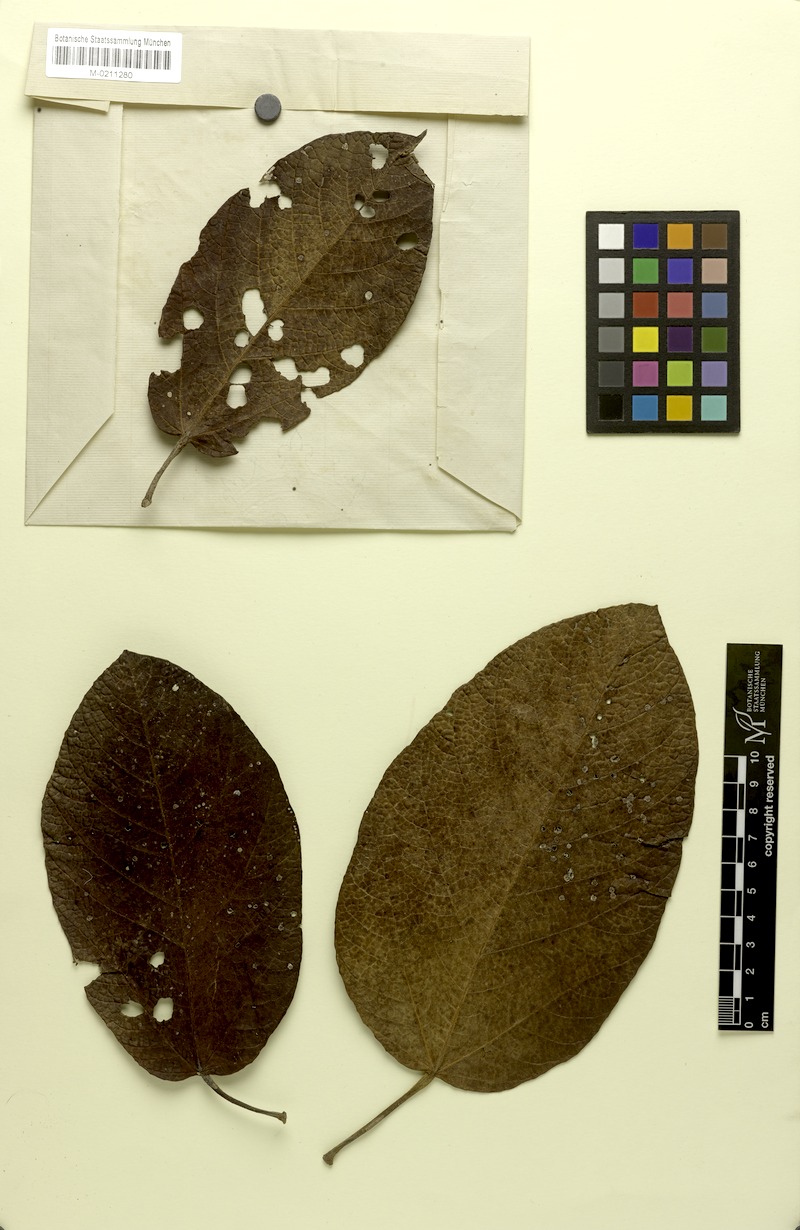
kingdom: Plantae
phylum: Tracheophyta
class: Magnoliopsida
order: Malvales
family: Malvaceae
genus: Sterculia
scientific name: Sterculia speciosa
